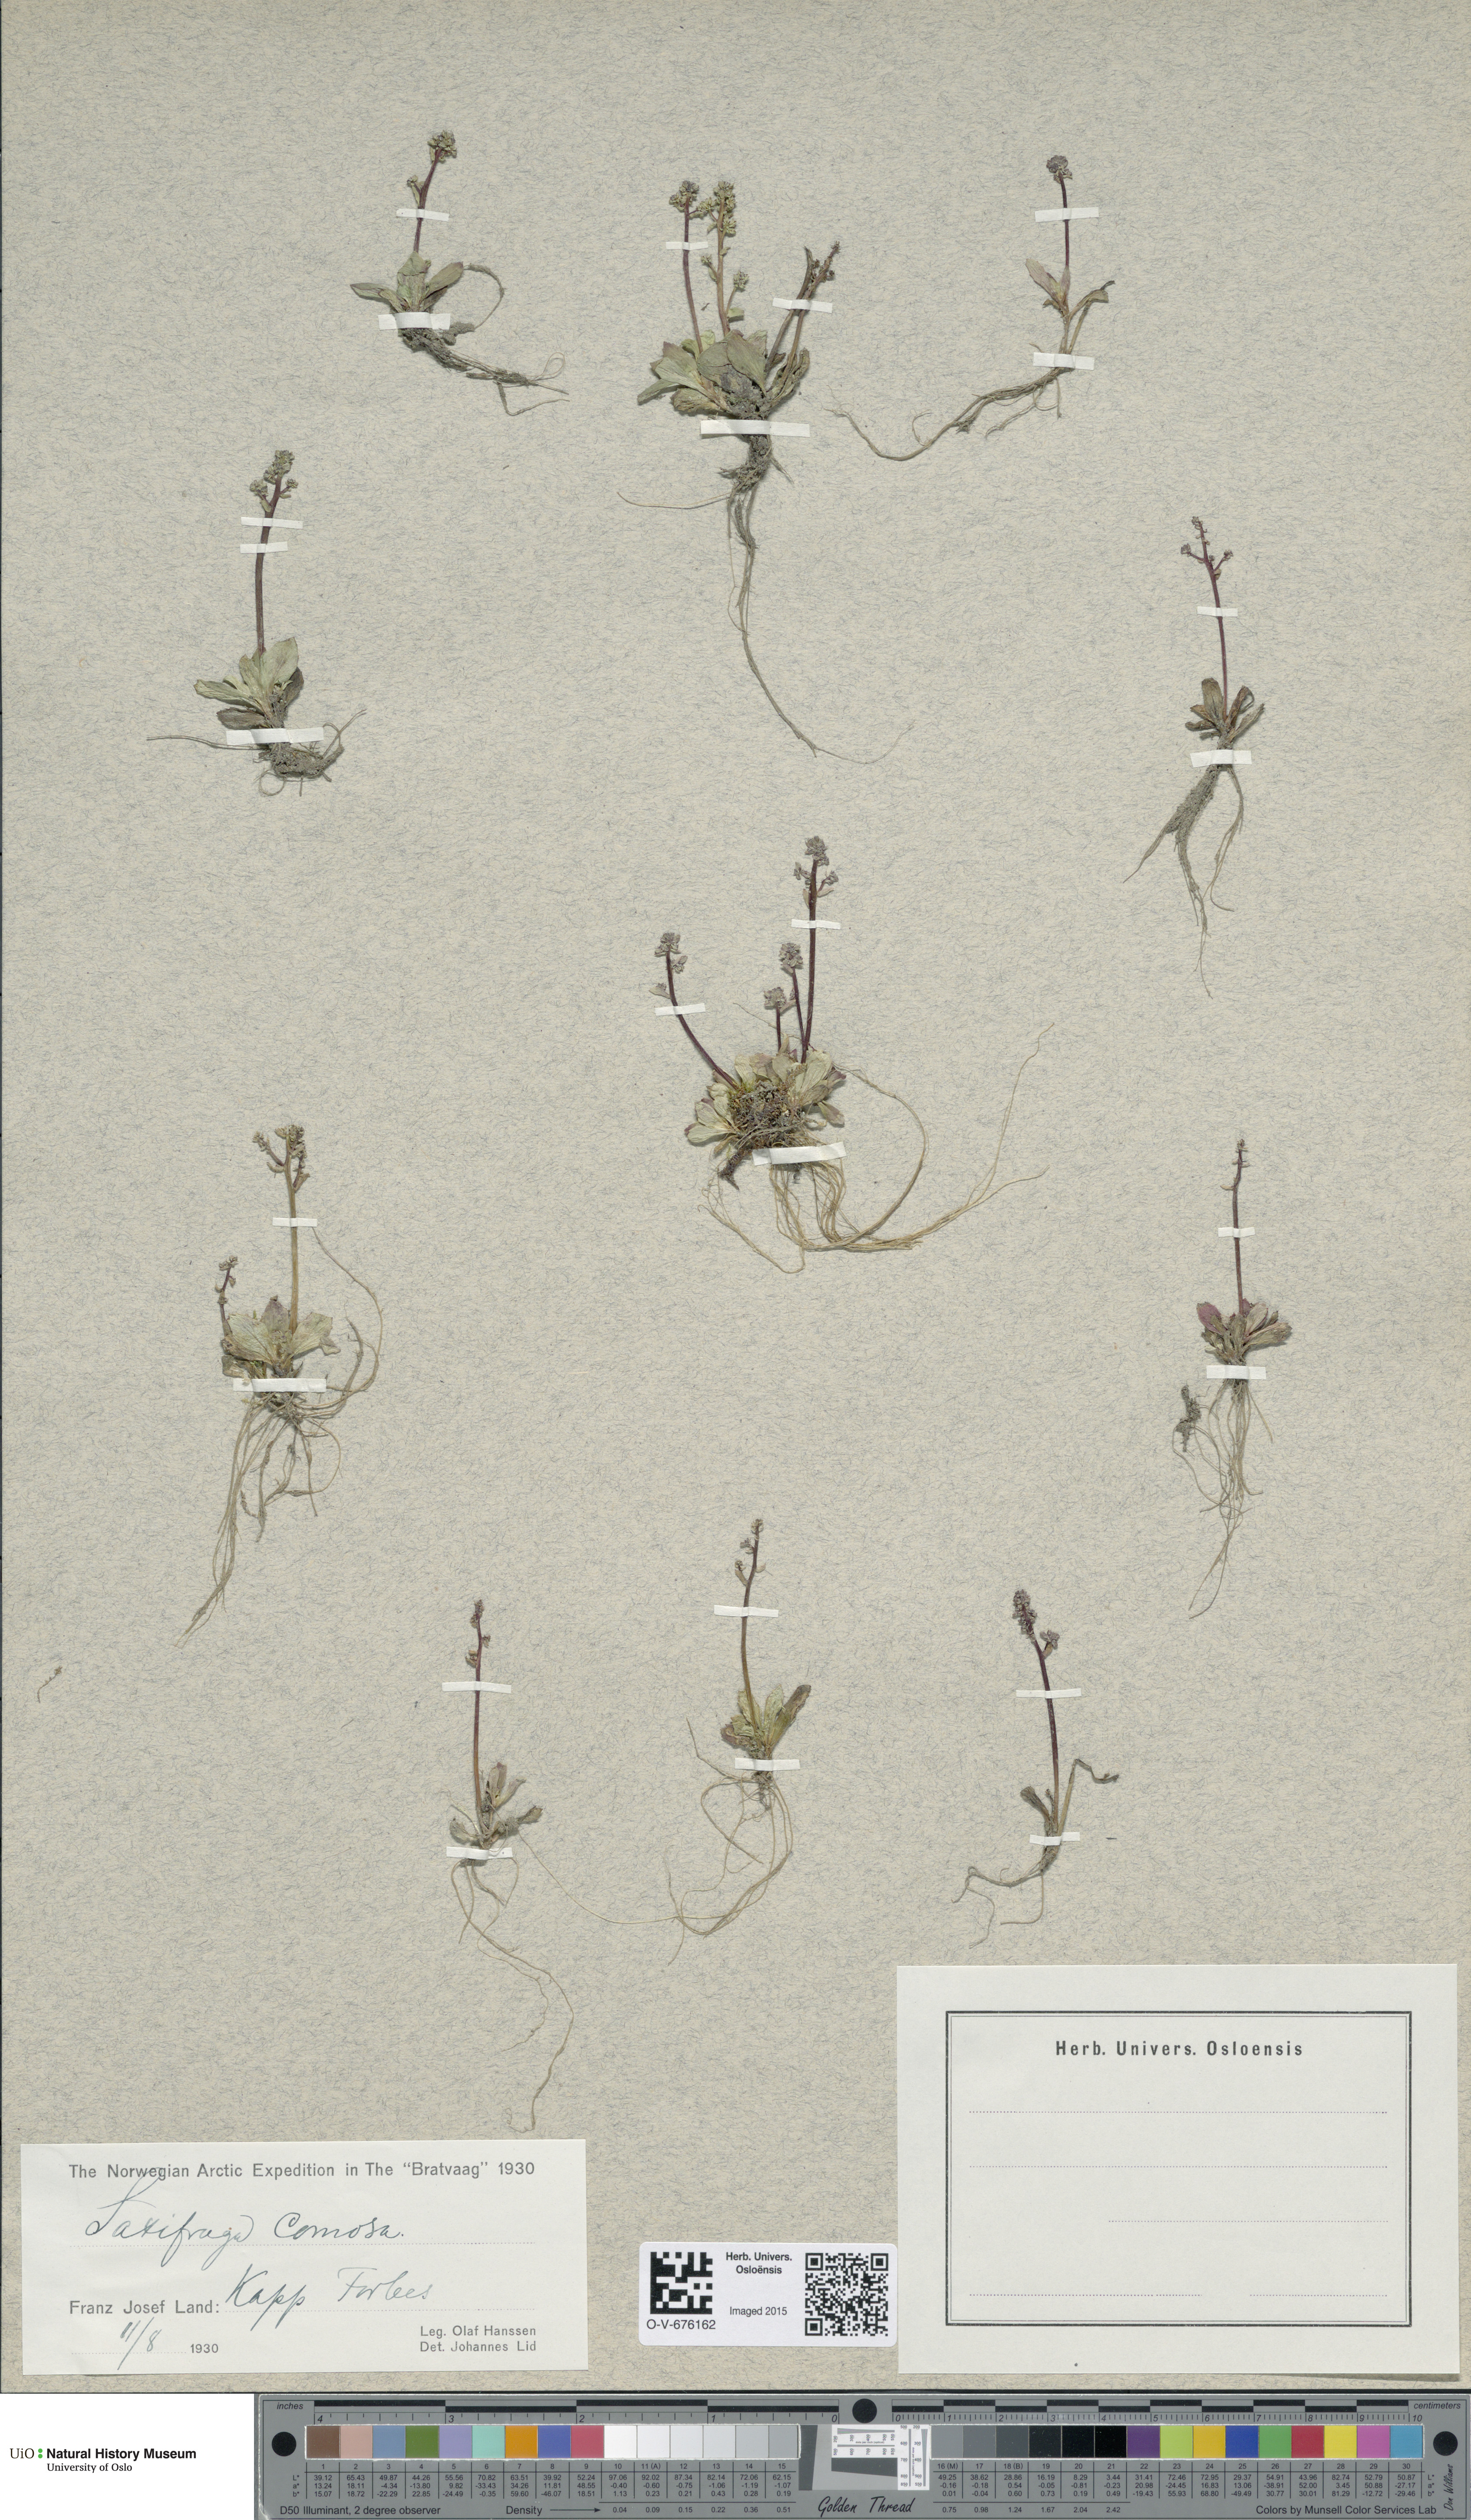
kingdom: Plantae
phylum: Tracheophyta
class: Magnoliopsida
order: Saxifragales
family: Saxifragaceae
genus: Micranthes
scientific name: Micranthes foliolosa
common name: Leafystem saxifrage
